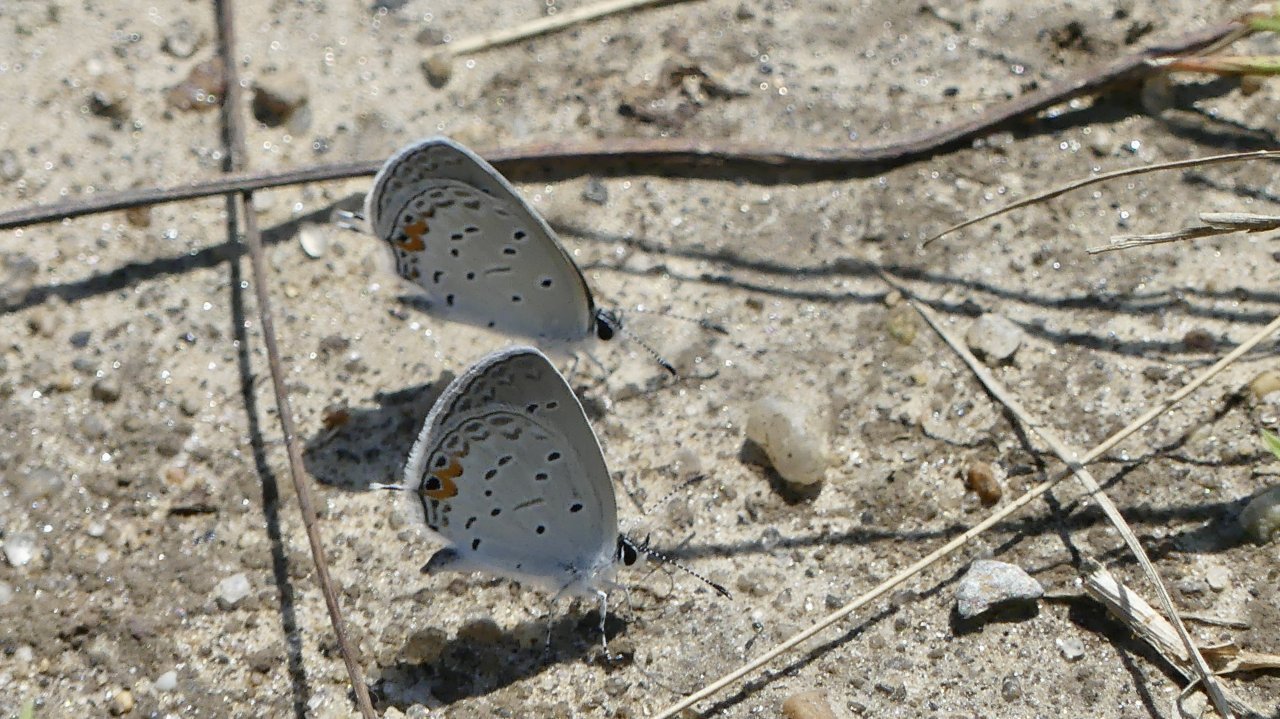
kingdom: Animalia
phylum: Arthropoda
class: Insecta
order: Lepidoptera
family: Lycaenidae
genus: Elkalyce
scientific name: Elkalyce comyntas
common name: Eastern Tailed-Blue
